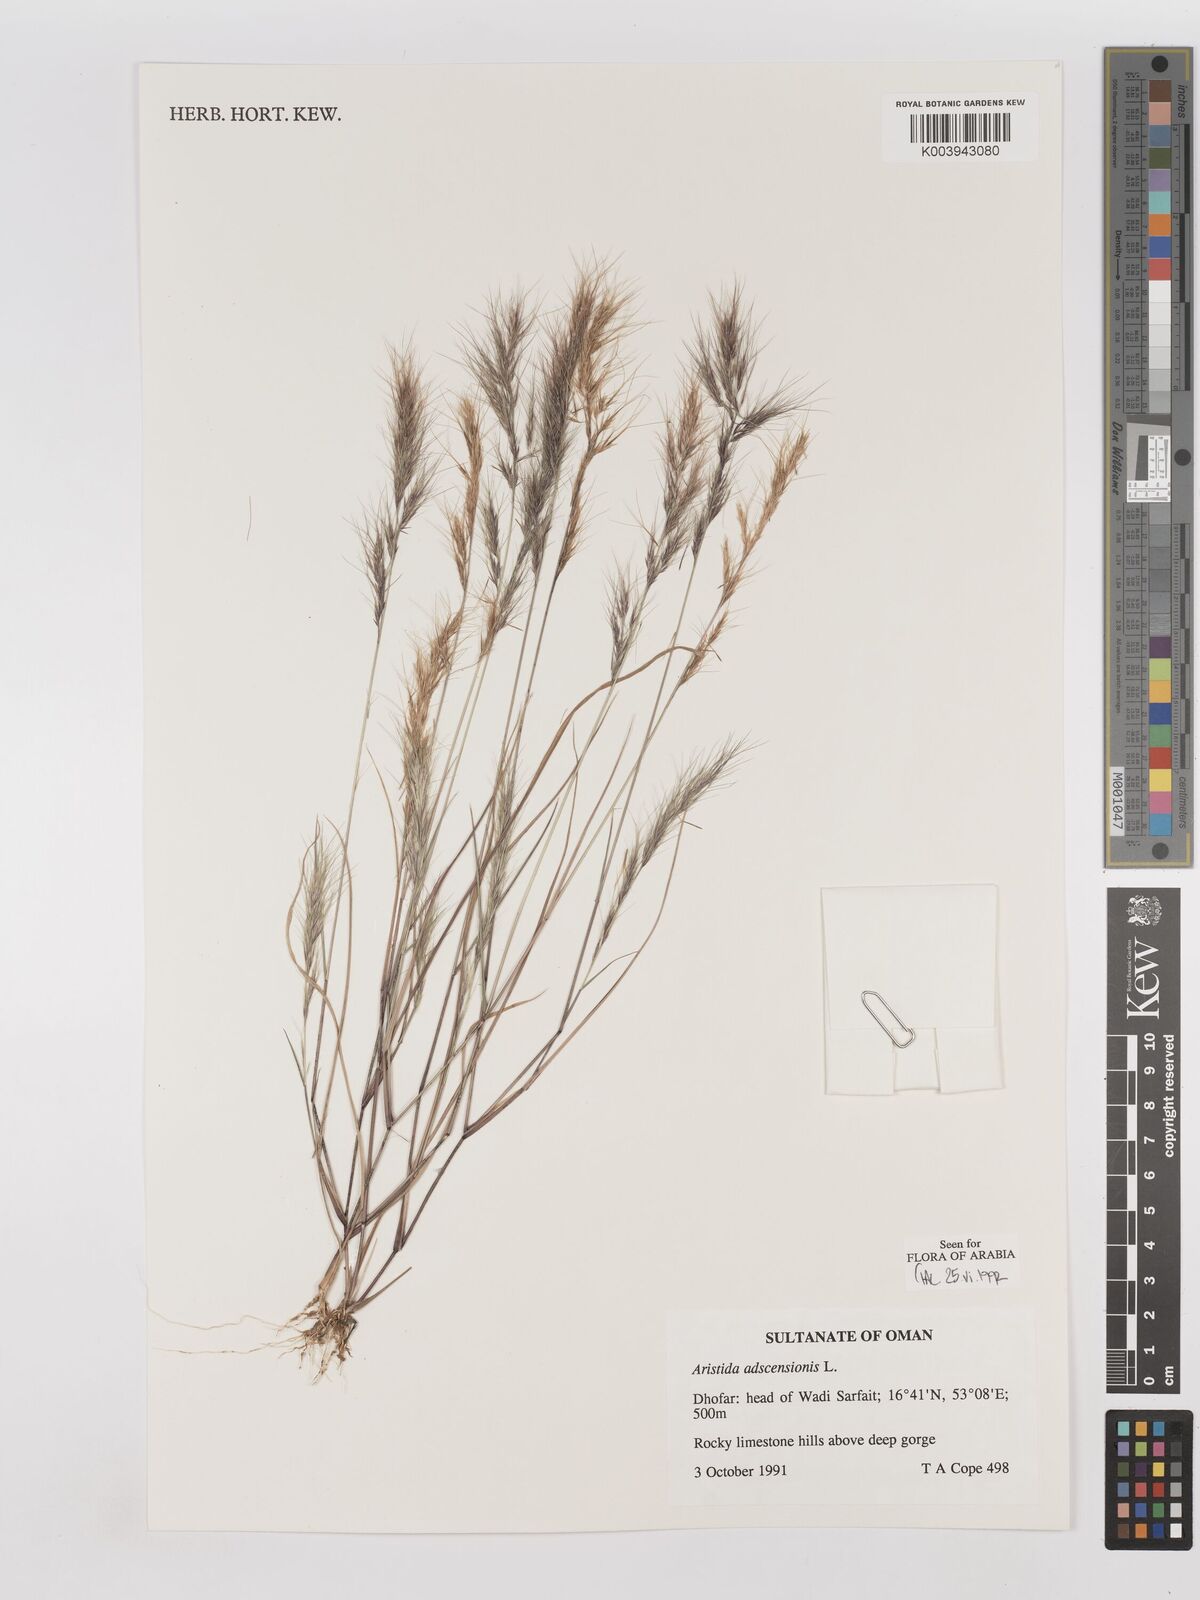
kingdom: Plantae
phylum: Tracheophyta
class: Liliopsida
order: Poales
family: Poaceae
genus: Aristida
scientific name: Aristida adscensionis
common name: Sixweeks threeawn
